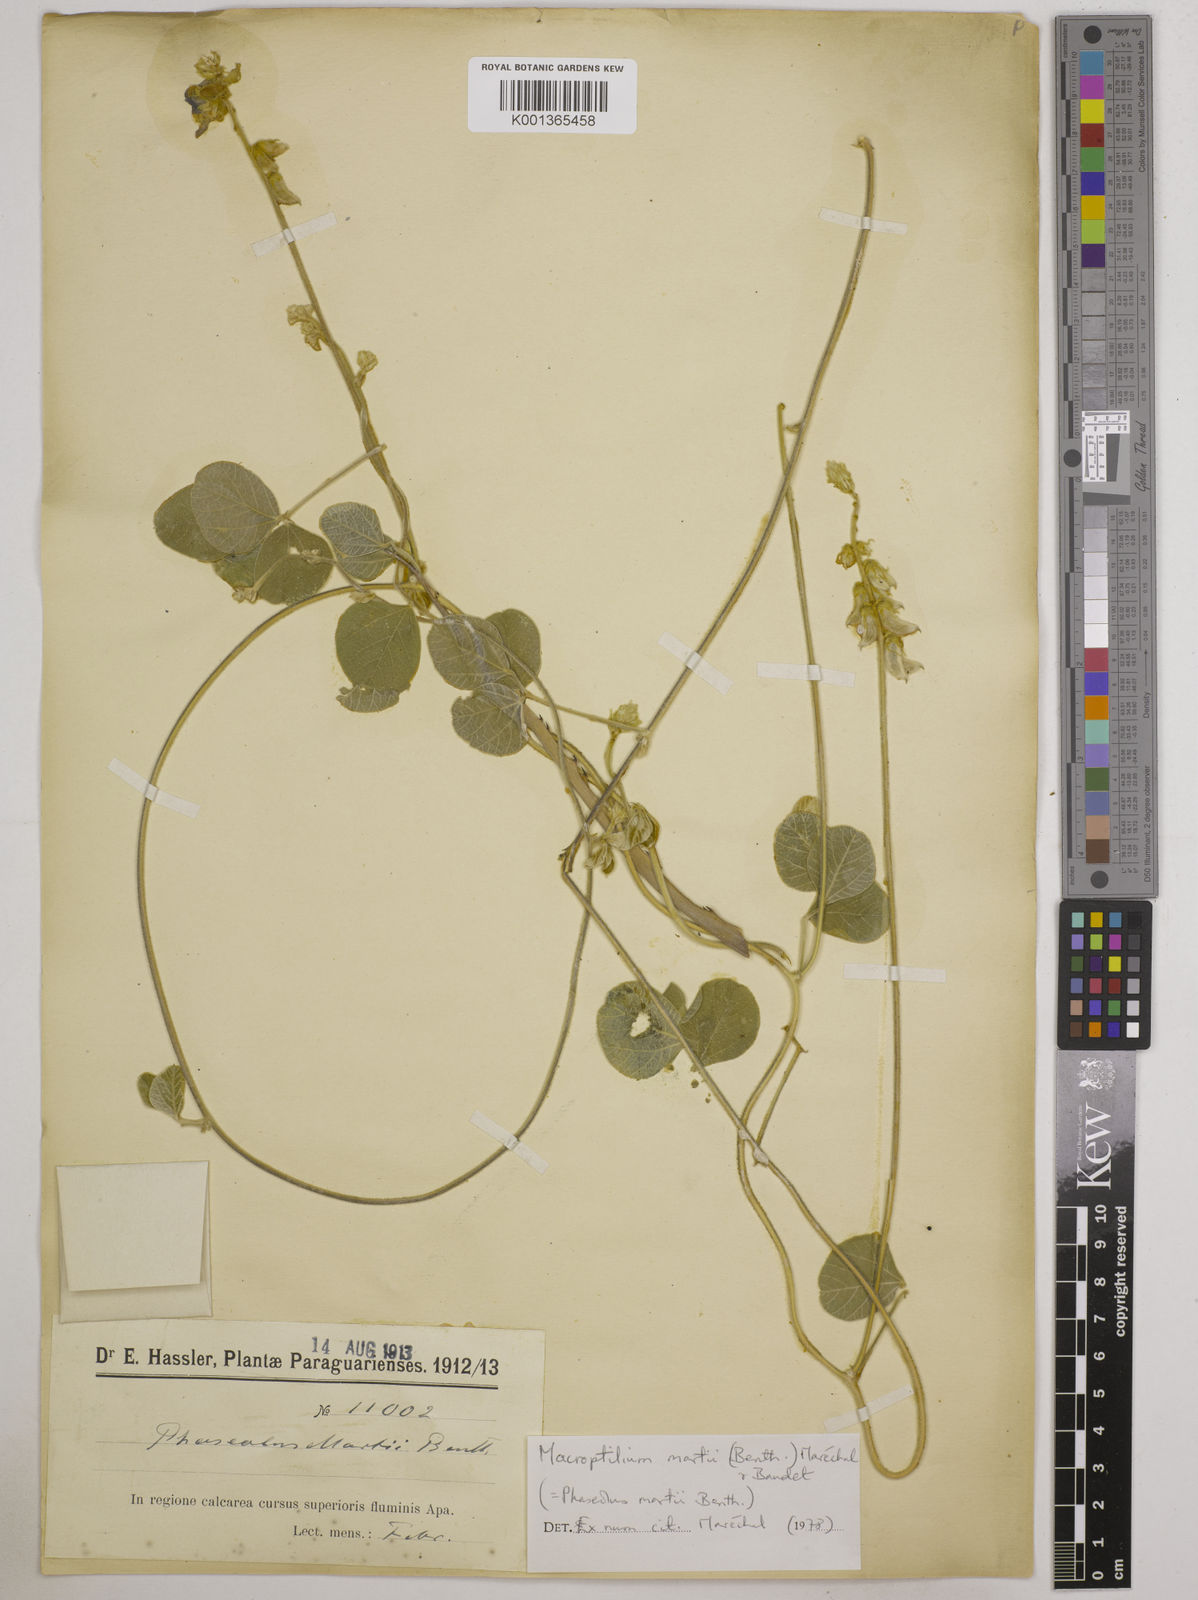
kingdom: Plantae
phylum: Tracheophyta
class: Magnoliopsida
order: Fabales
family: Fabaceae
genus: Macroptilium
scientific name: Macroptilium martii
